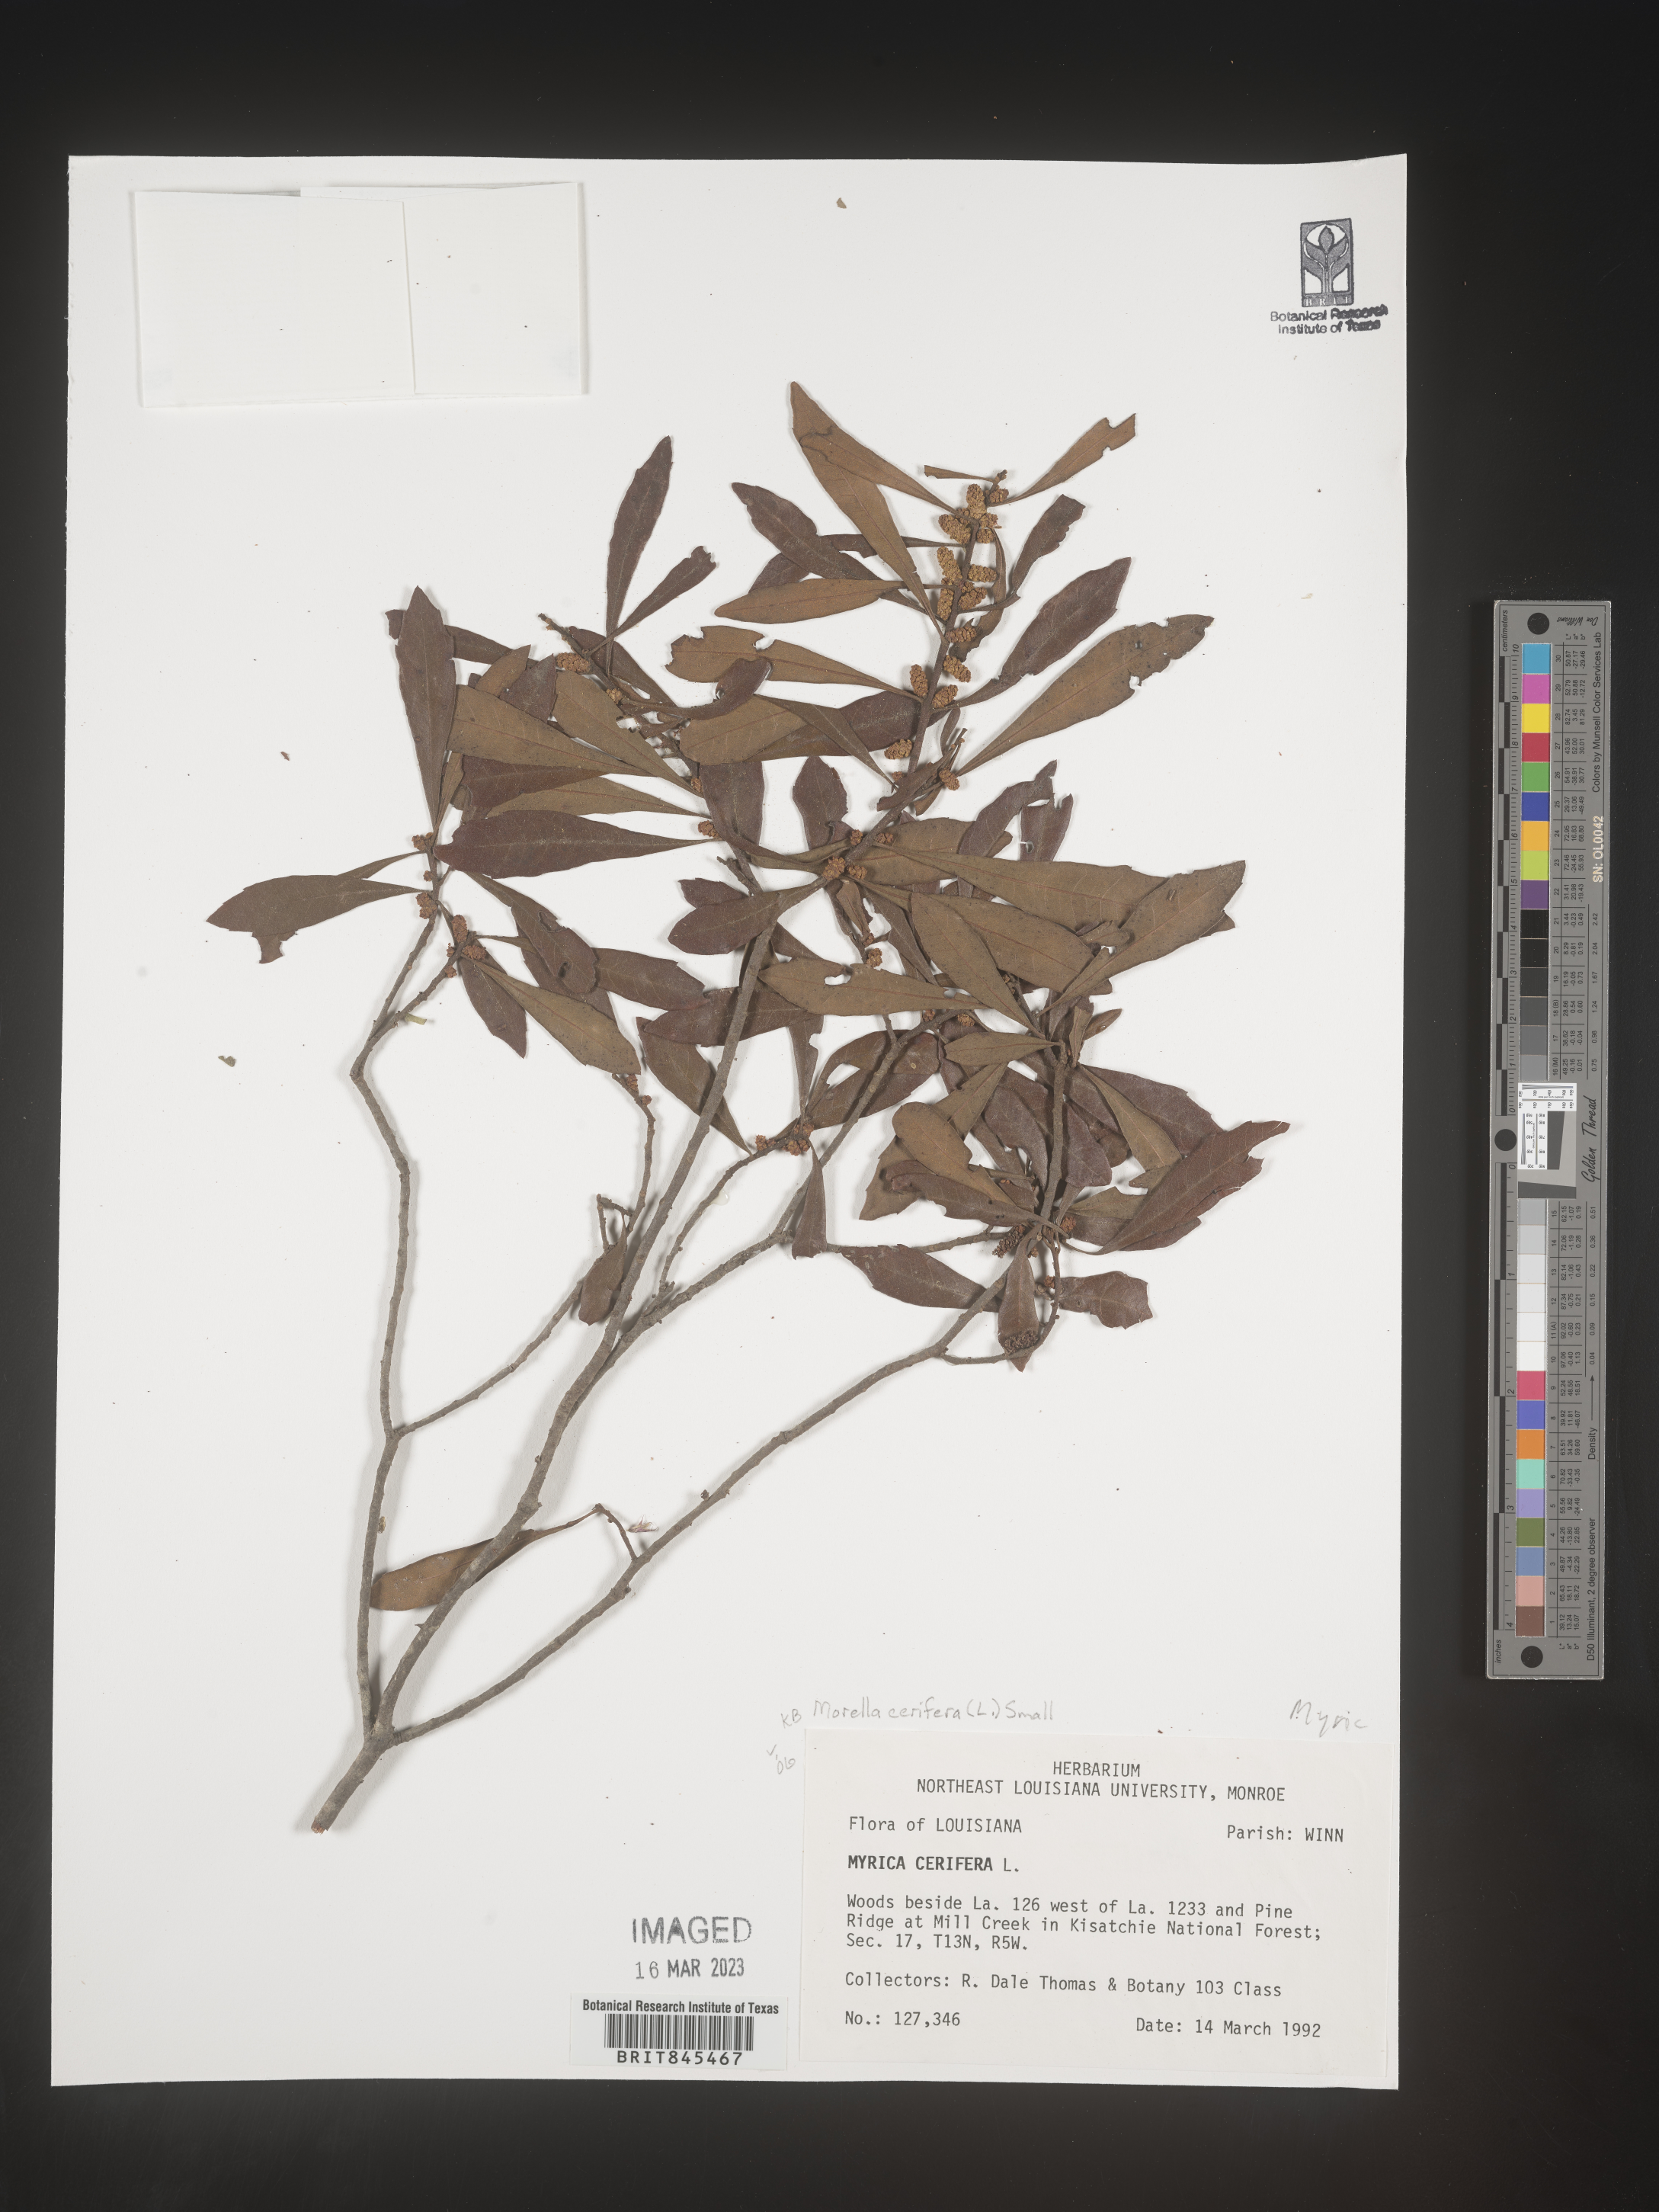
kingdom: Plantae
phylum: Tracheophyta
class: Magnoliopsida
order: Fagales
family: Myricaceae
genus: Morella
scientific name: Morella cerifera
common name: Wax myrtle
